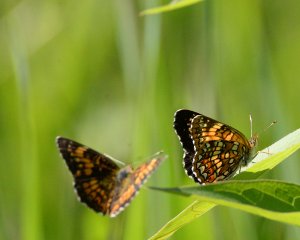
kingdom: Animalia
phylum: Arthropoda
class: Insecta
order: Lepidoptera
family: Nymphalidae
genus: Chlosyne
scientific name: Chlosyne harrisii
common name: Harris's Checkerspot
